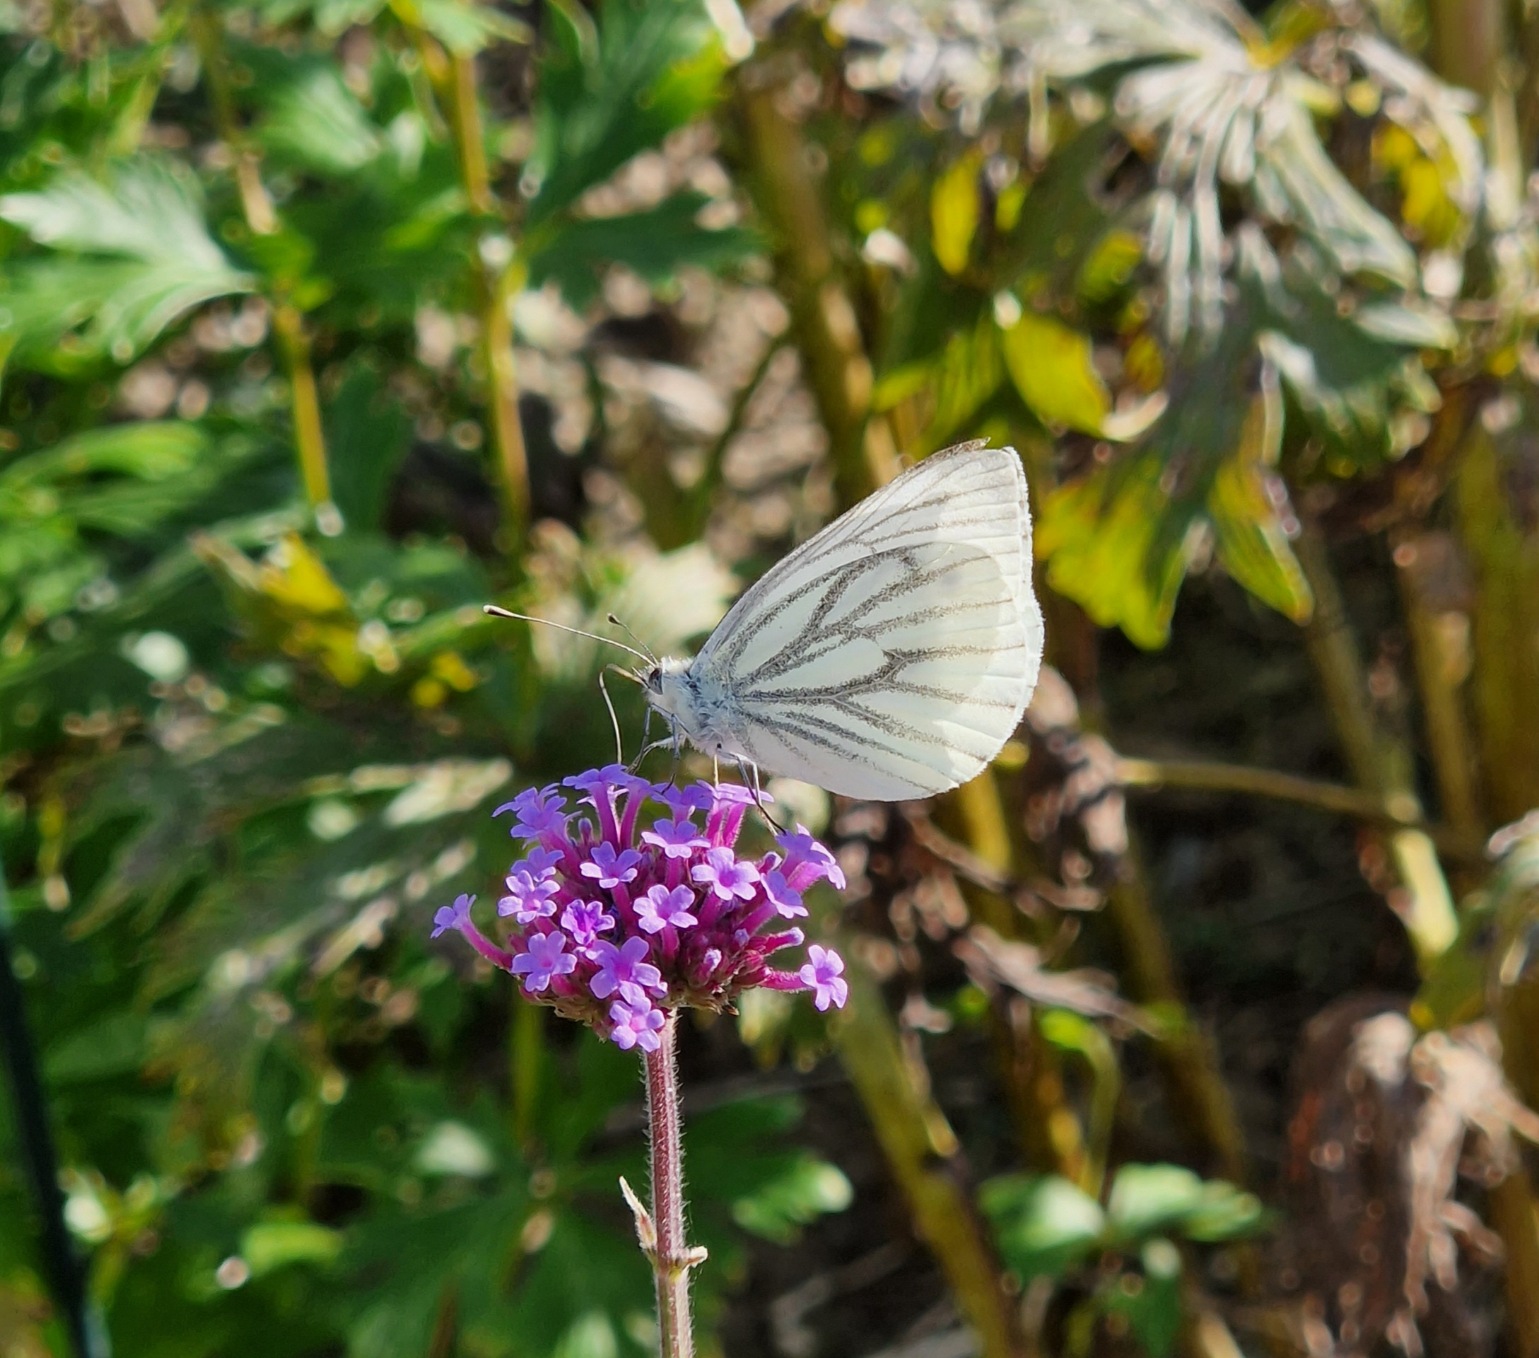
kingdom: Animalia
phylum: Arthropoda
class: Insecta
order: Lepidoptera
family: Pieridae
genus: Pieris
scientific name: Pieris napi
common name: Grønåret kålsommerfugl
